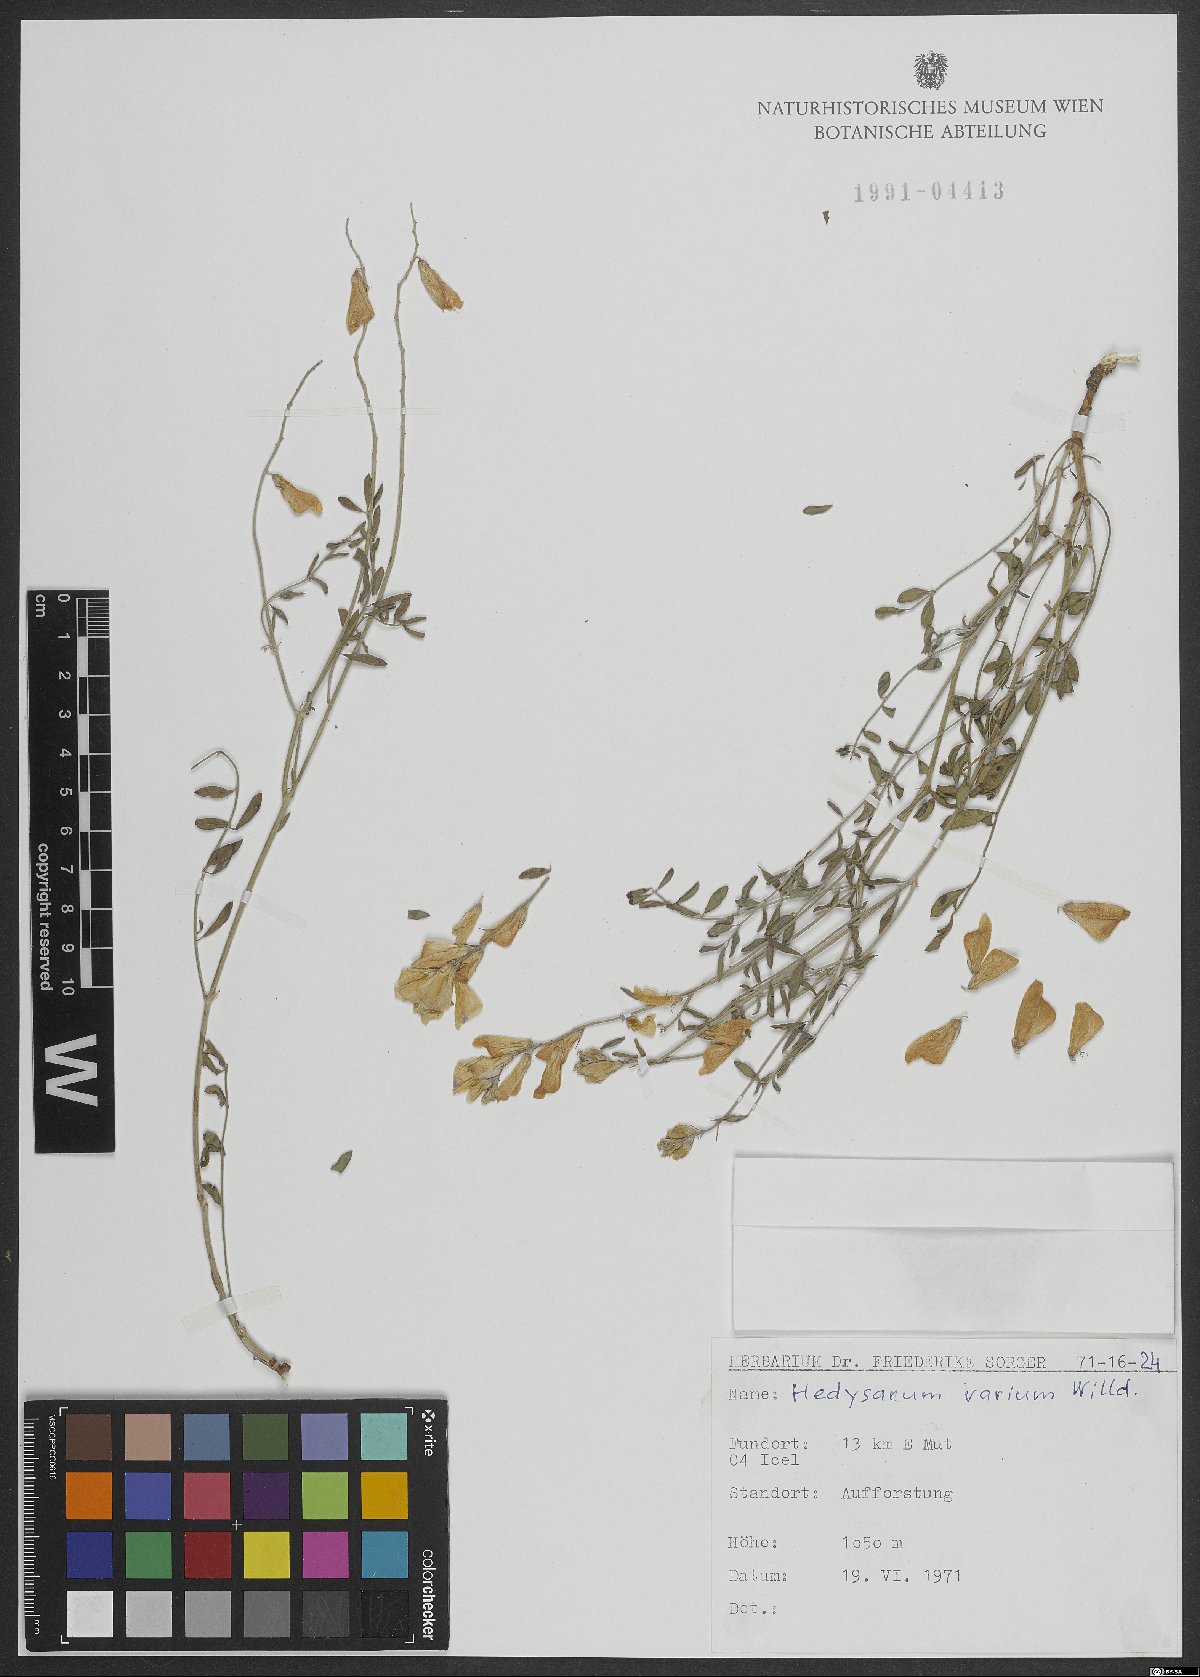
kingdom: Plantae
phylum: Tracheophyta
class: Magnoliopsida
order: Fabales
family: Fabaceae
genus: Hedysarum
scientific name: Hedysarum varium
